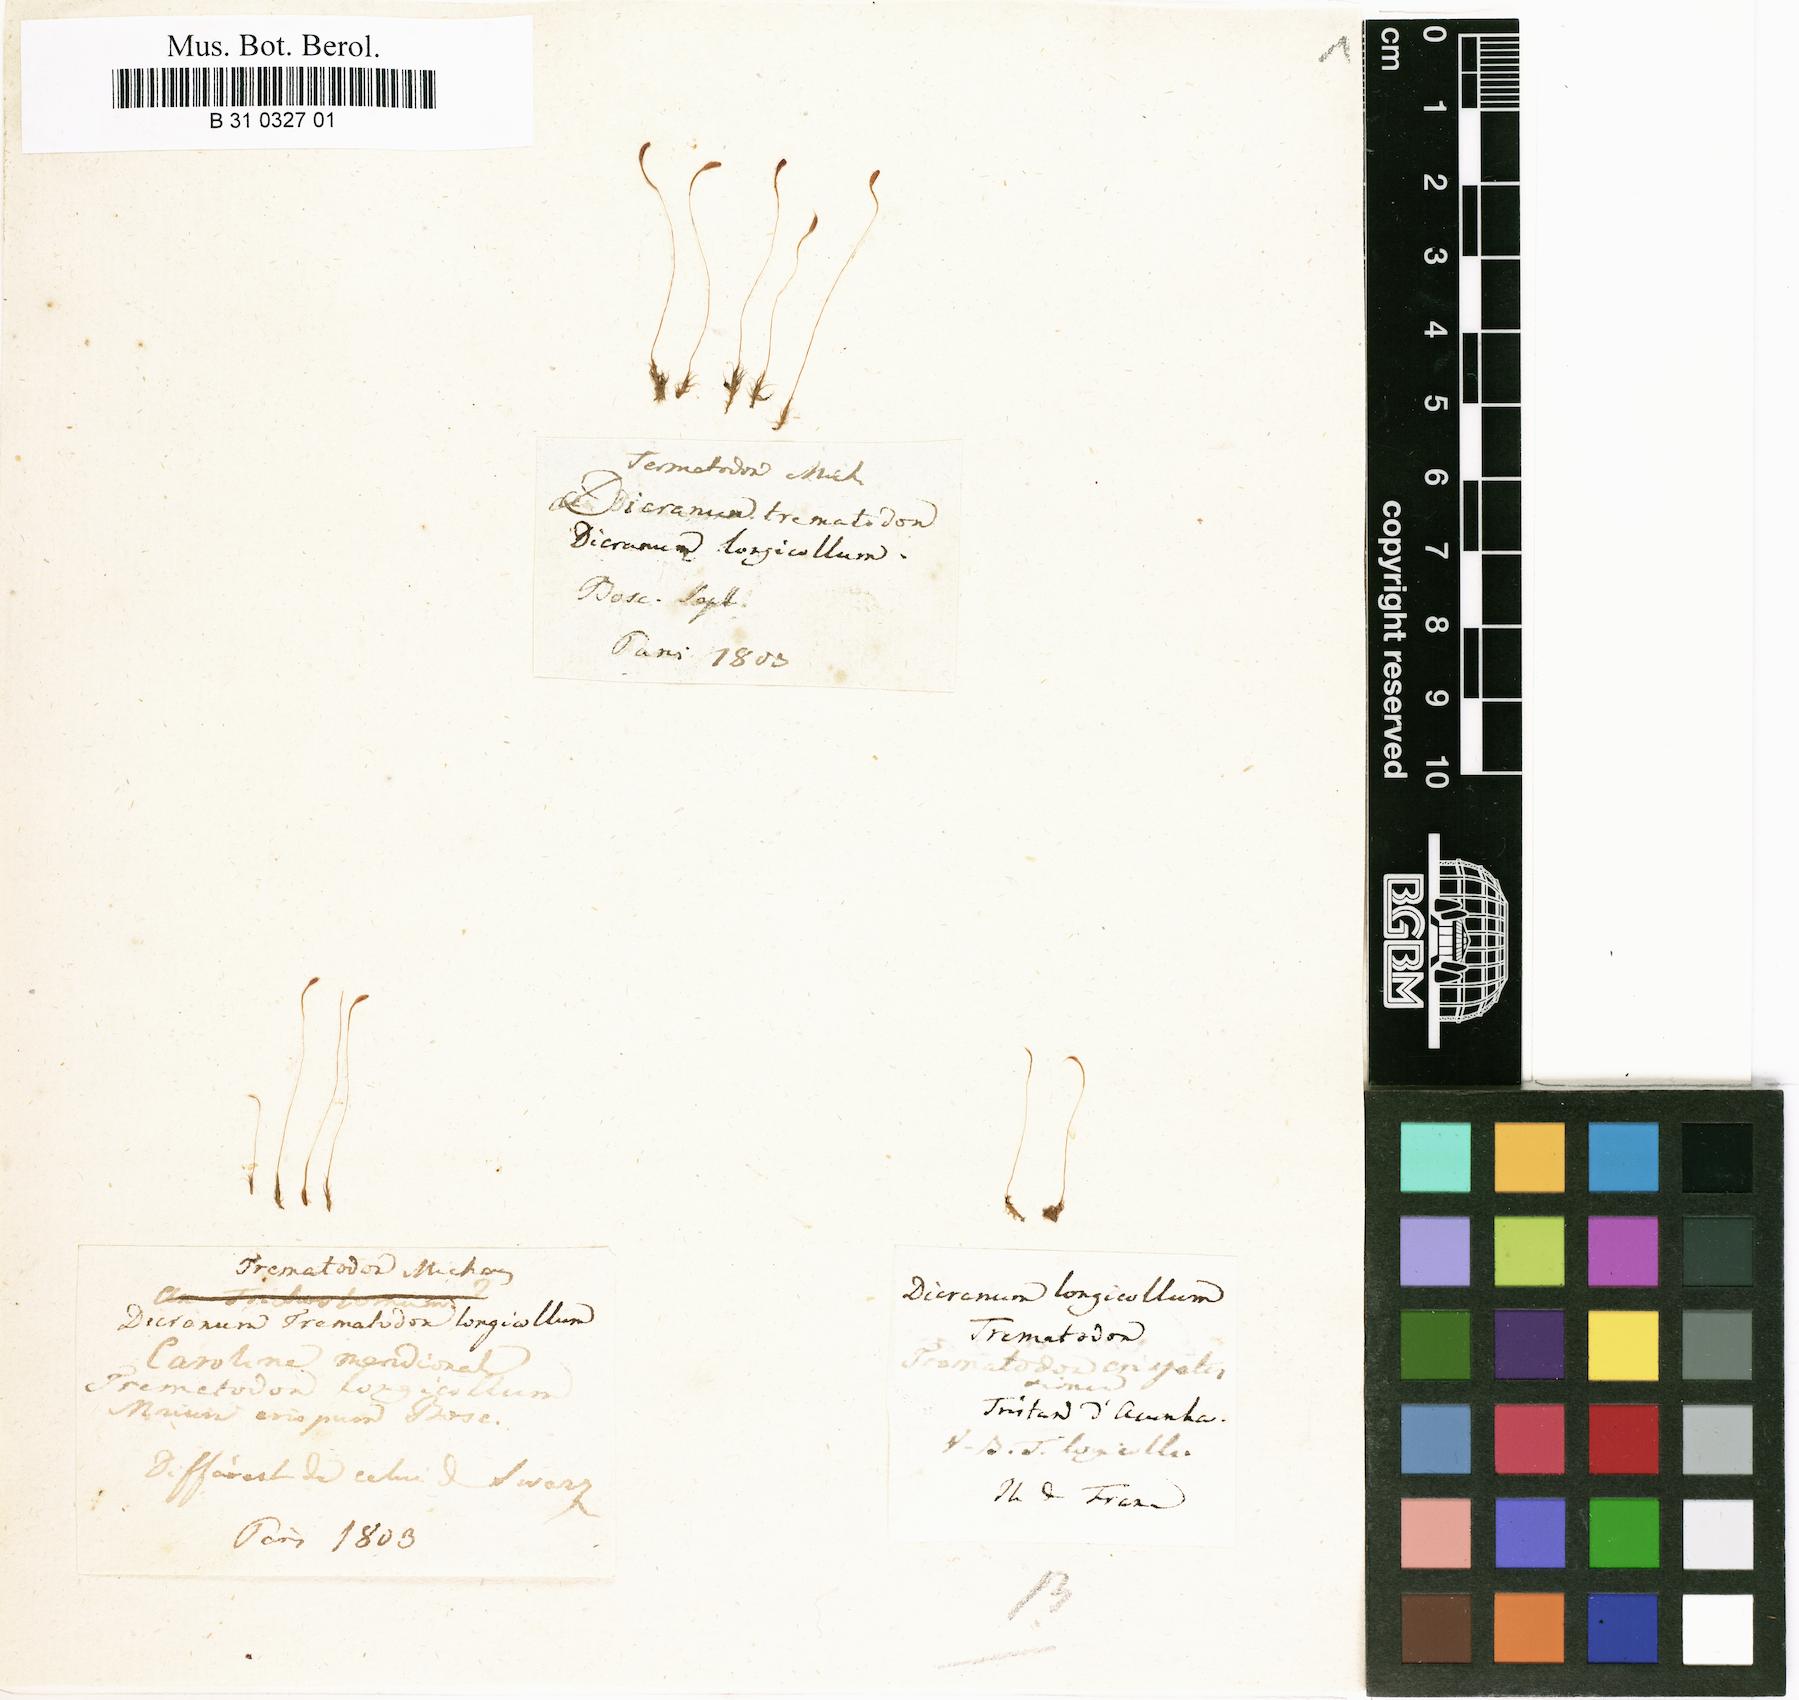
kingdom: Plantae
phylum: Bryophyta
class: Bryopsida
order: Dicranales
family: Bruchiaceae
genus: Trematodon
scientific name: Trematodon longicollis
